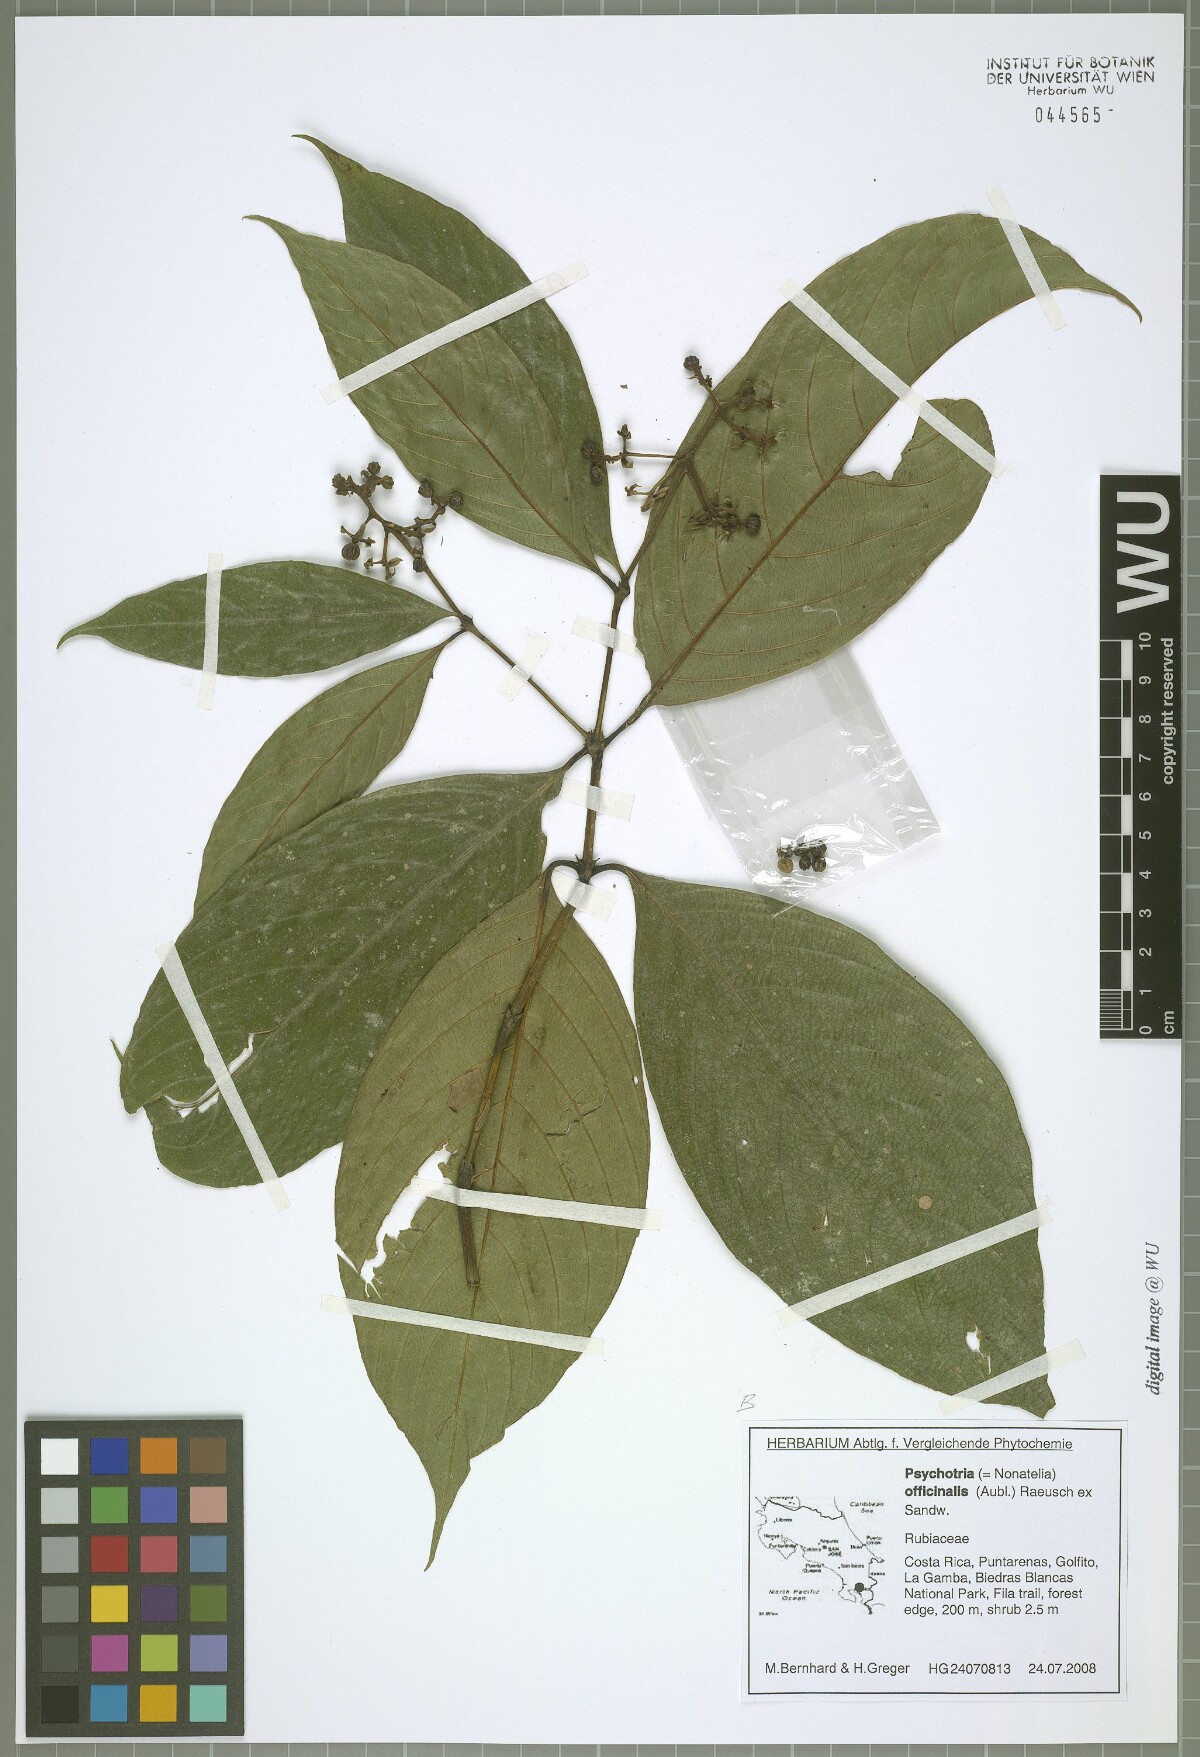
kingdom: Plantae
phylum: Tracheophyta
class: Magnoliopsida
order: Gentianales
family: Rubiaceae
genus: Palicourea
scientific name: Palicourea winkleri
